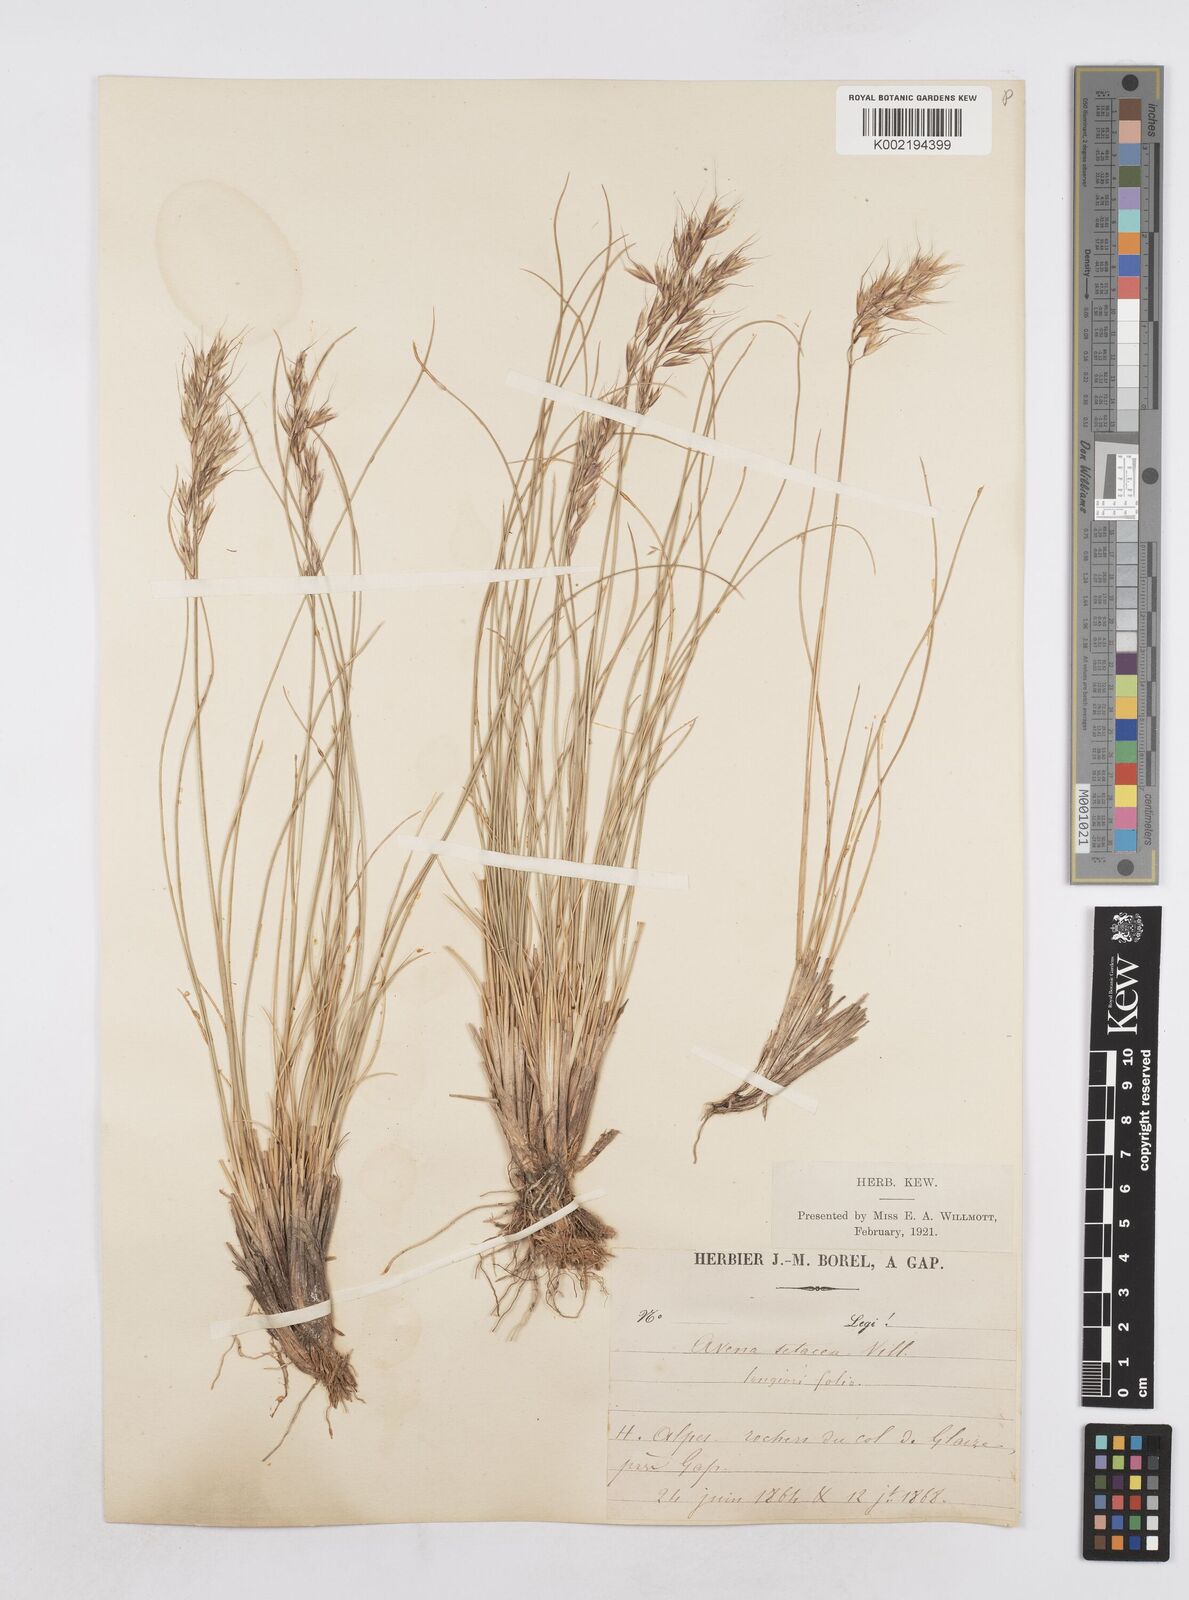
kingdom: Plantae
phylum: Tracheophyta
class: Liliopsida
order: Poales
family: Poaceae
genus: Helictotrichon
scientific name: Helictotrichon setaceum
